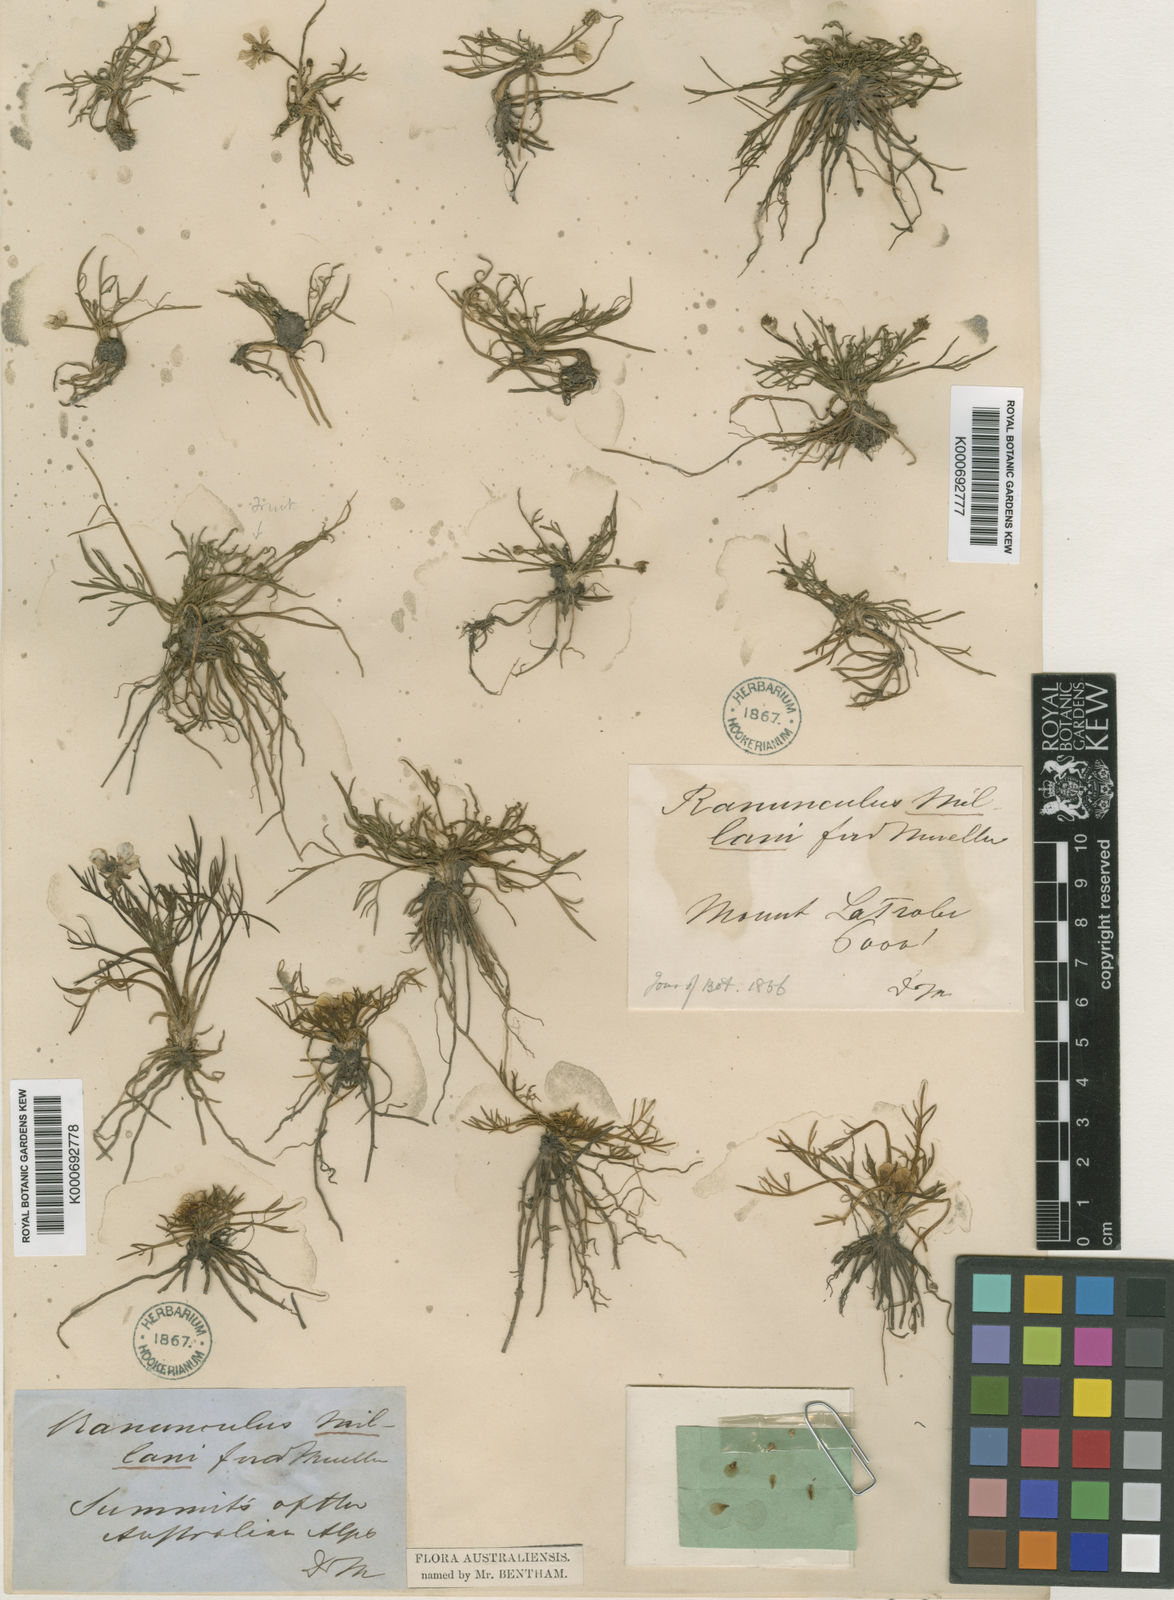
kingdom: Plantae
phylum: Tracheophyta
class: Magnoliopsida
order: Ranunculales
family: Ranunculaceae
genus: Ranunculus
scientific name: Ranunculus millanii
